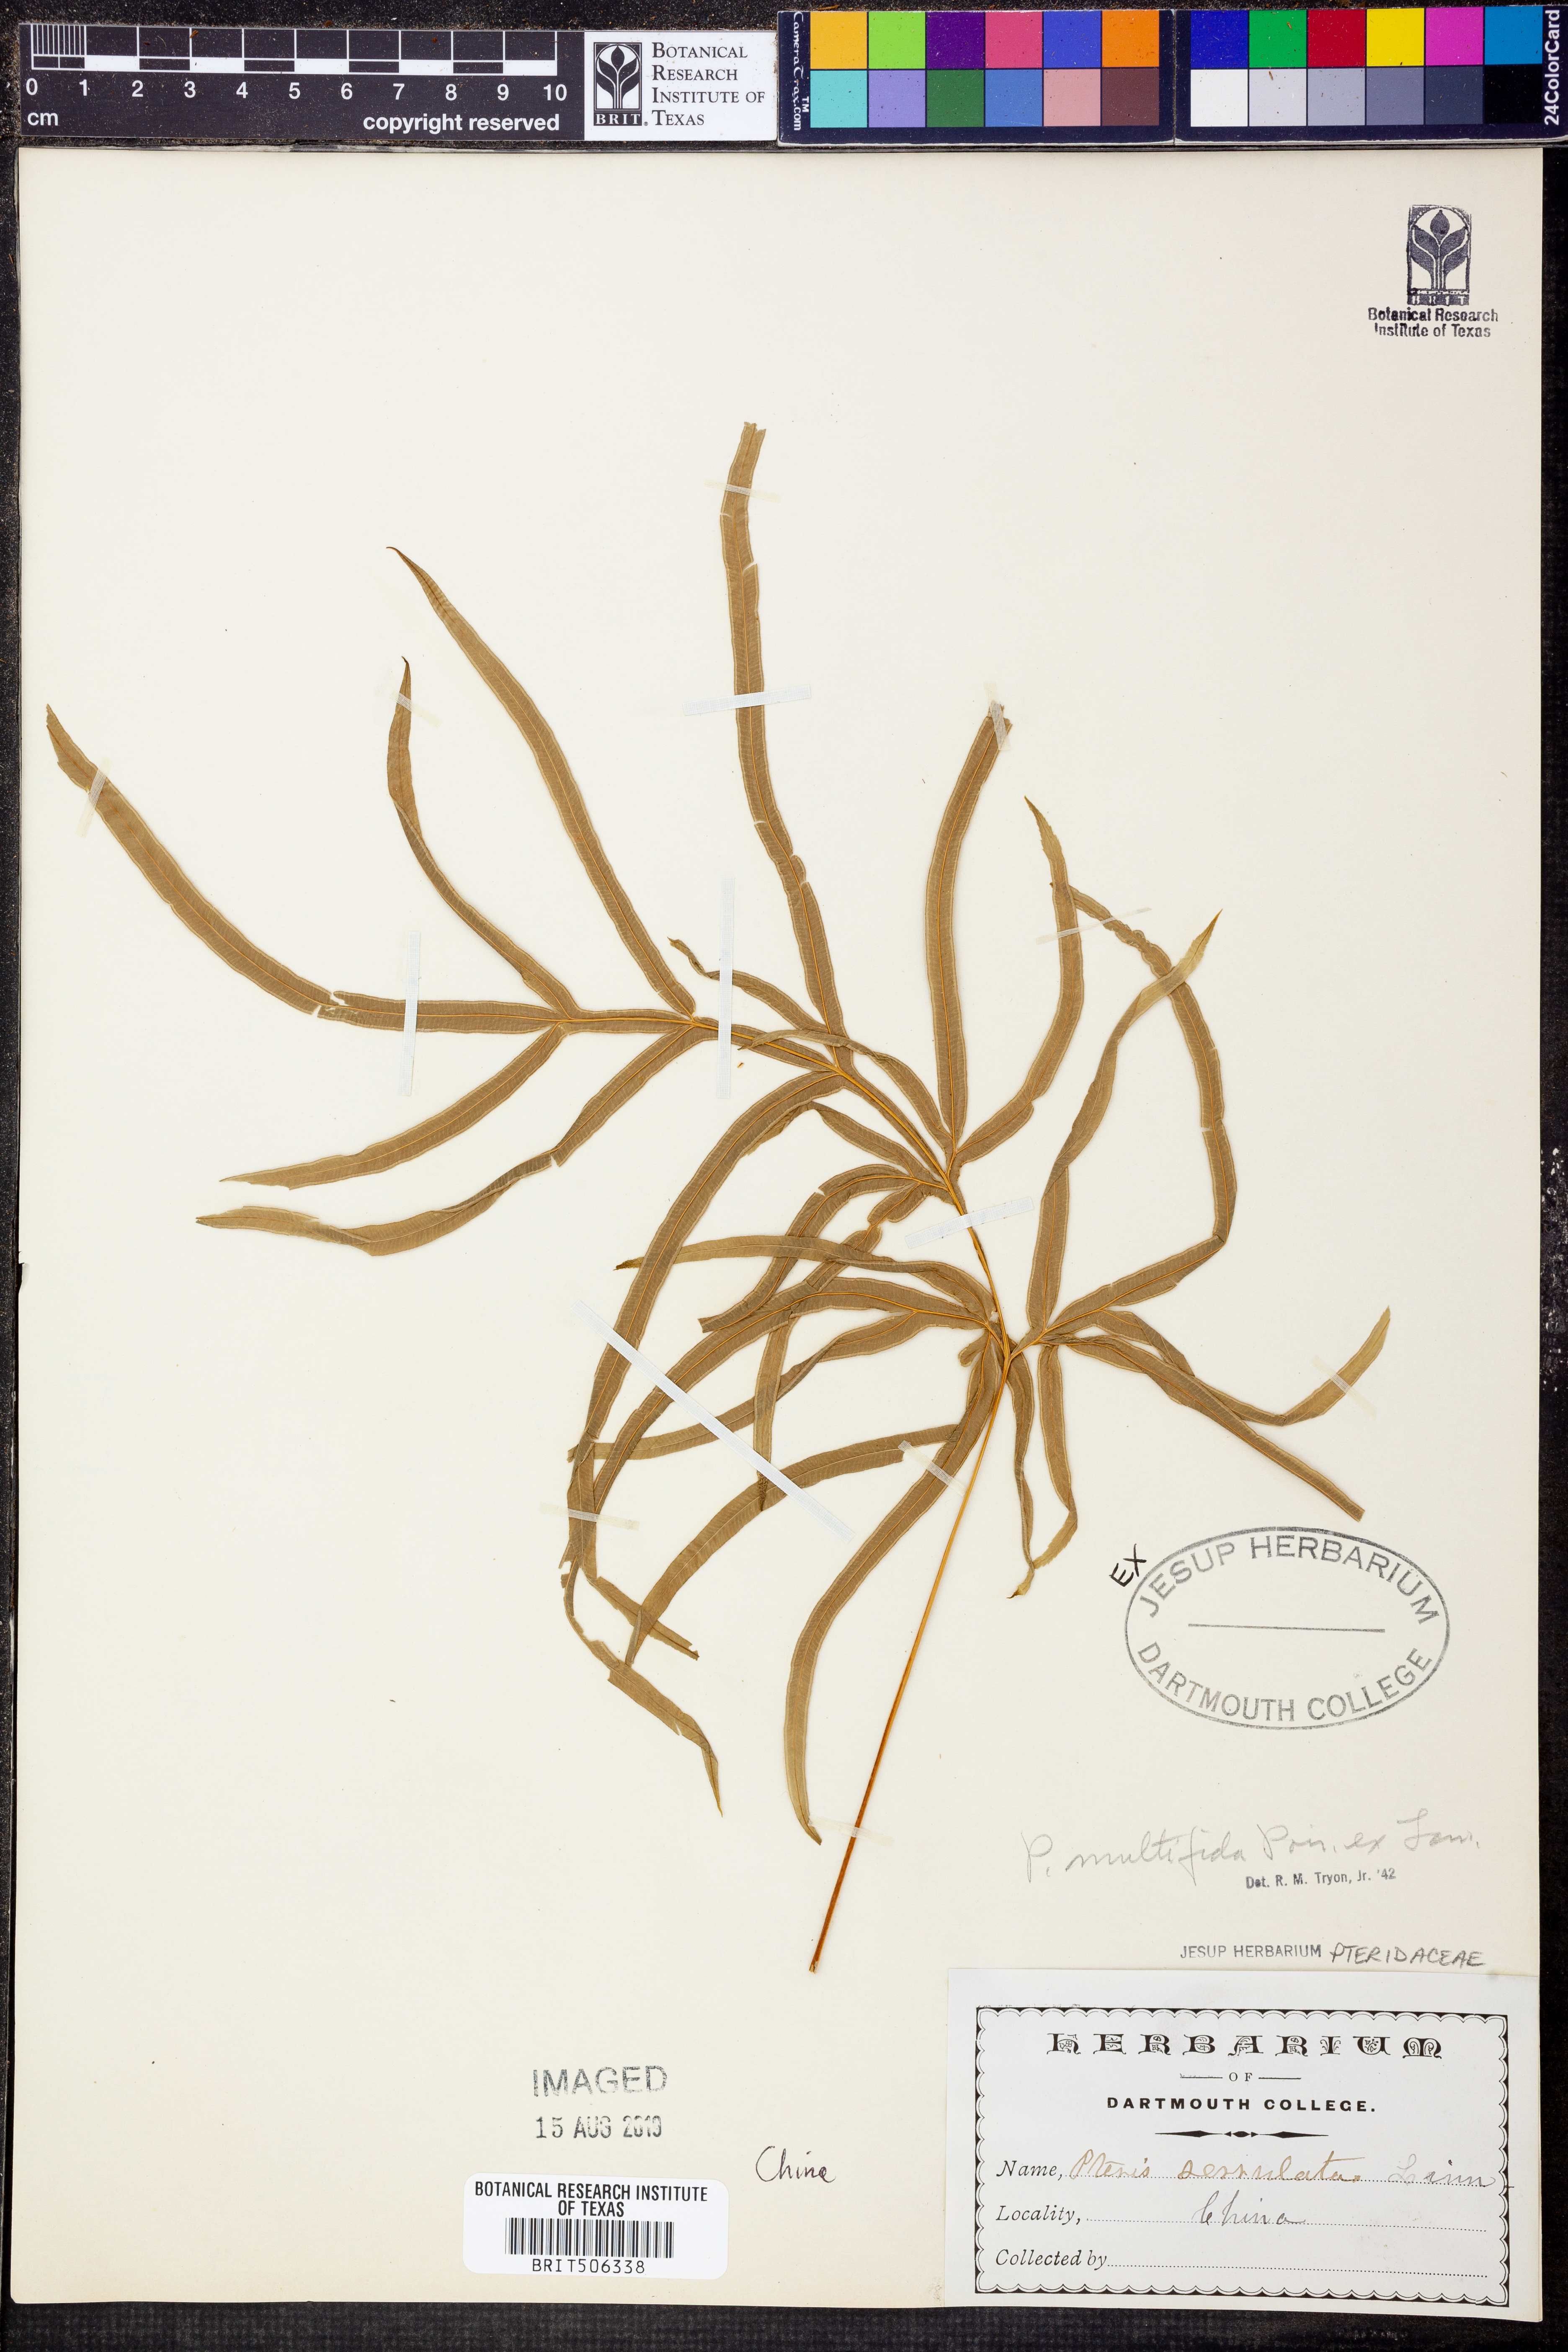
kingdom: Plantae
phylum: Tracheophyta
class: Polypodiopsida
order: Polypodiales
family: Pteridaceae
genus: Pteris
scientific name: Pteris multifida
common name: Spider brake
